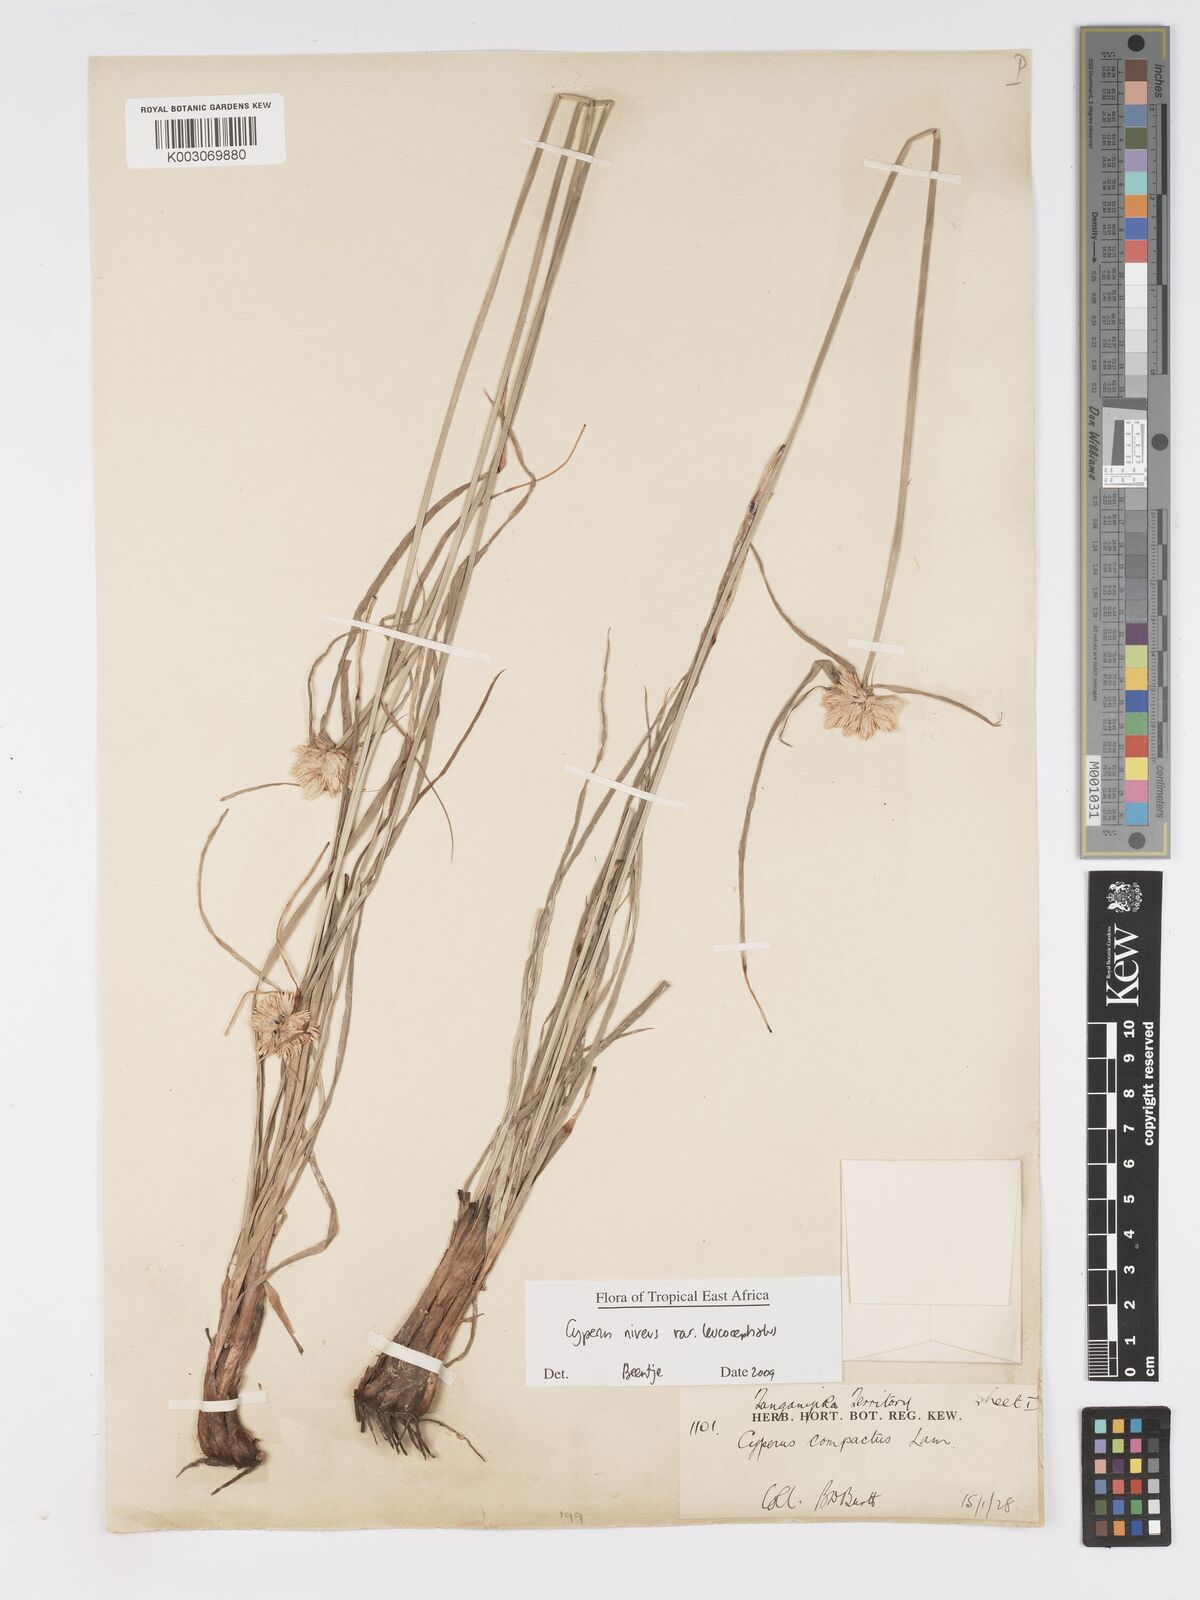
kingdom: Plantae
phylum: Tracheophyta
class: Liliopsida
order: Poales
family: Cyperaceae
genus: Cyperus
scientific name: Cyperus niveus
